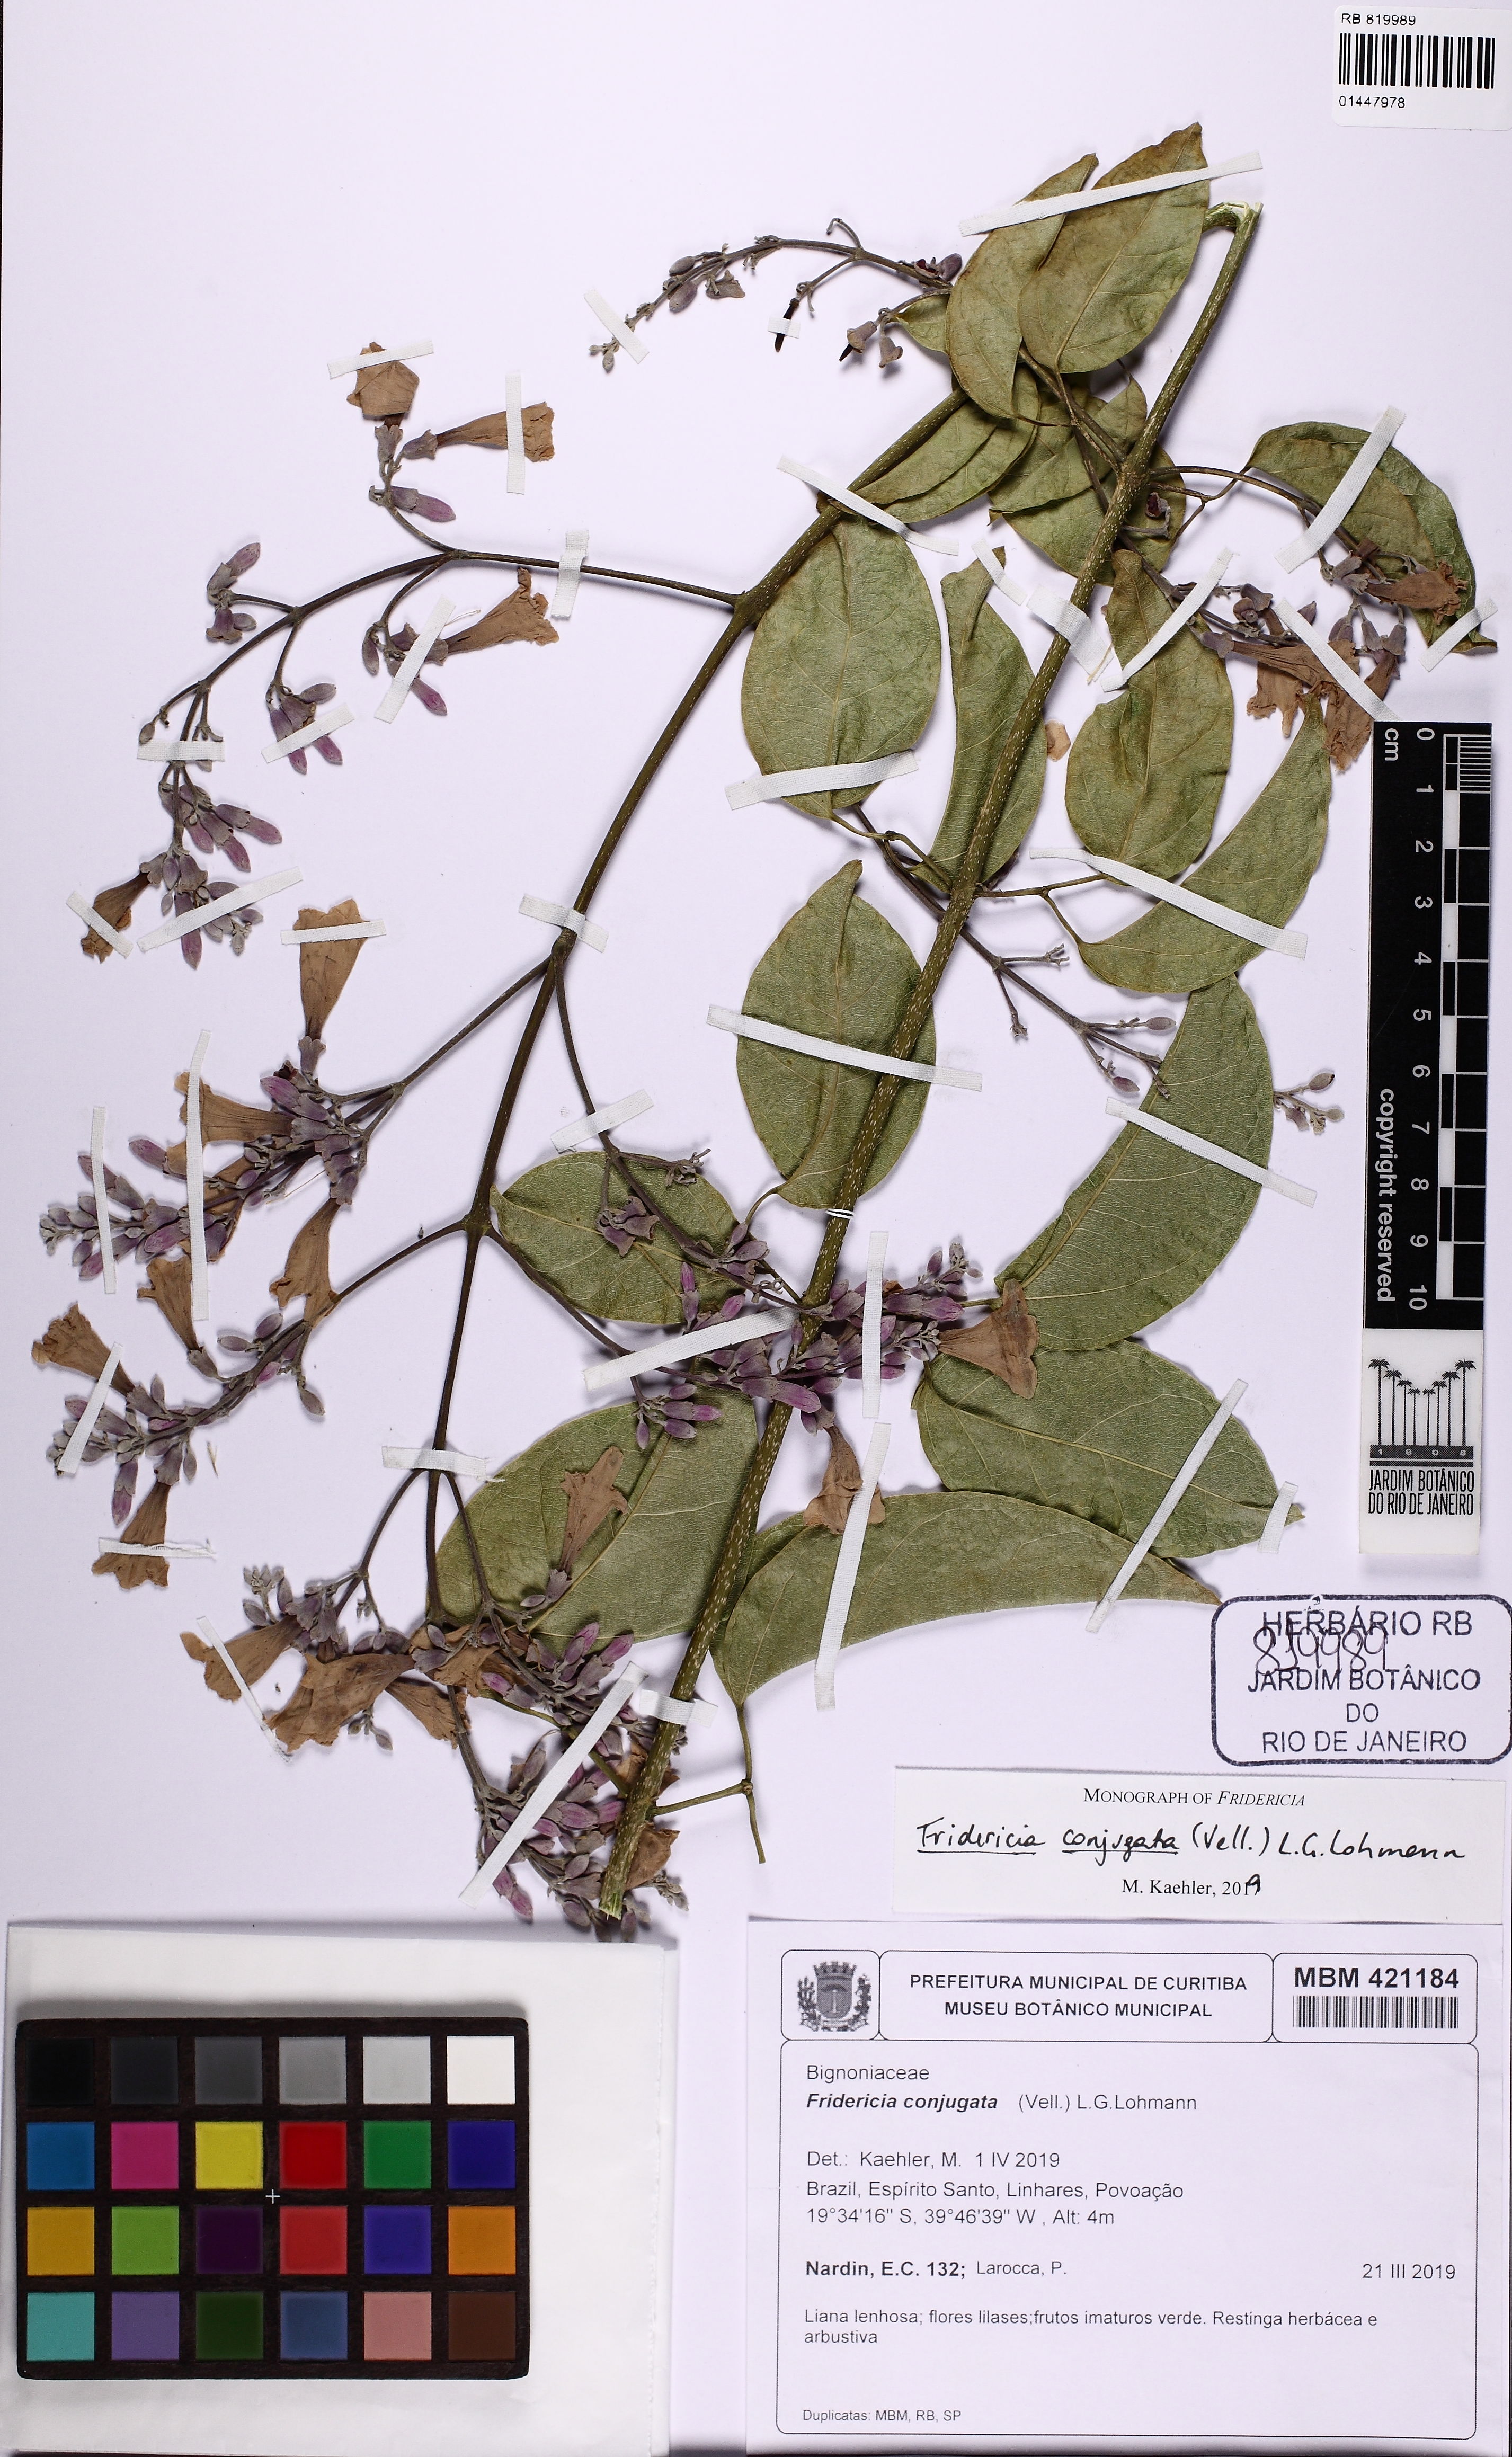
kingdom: Plantae
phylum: Tracheophyta
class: Magnoliopsida
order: Lamiales
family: Bignoniaceae
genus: Fridericia
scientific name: Fridericia conjugata
